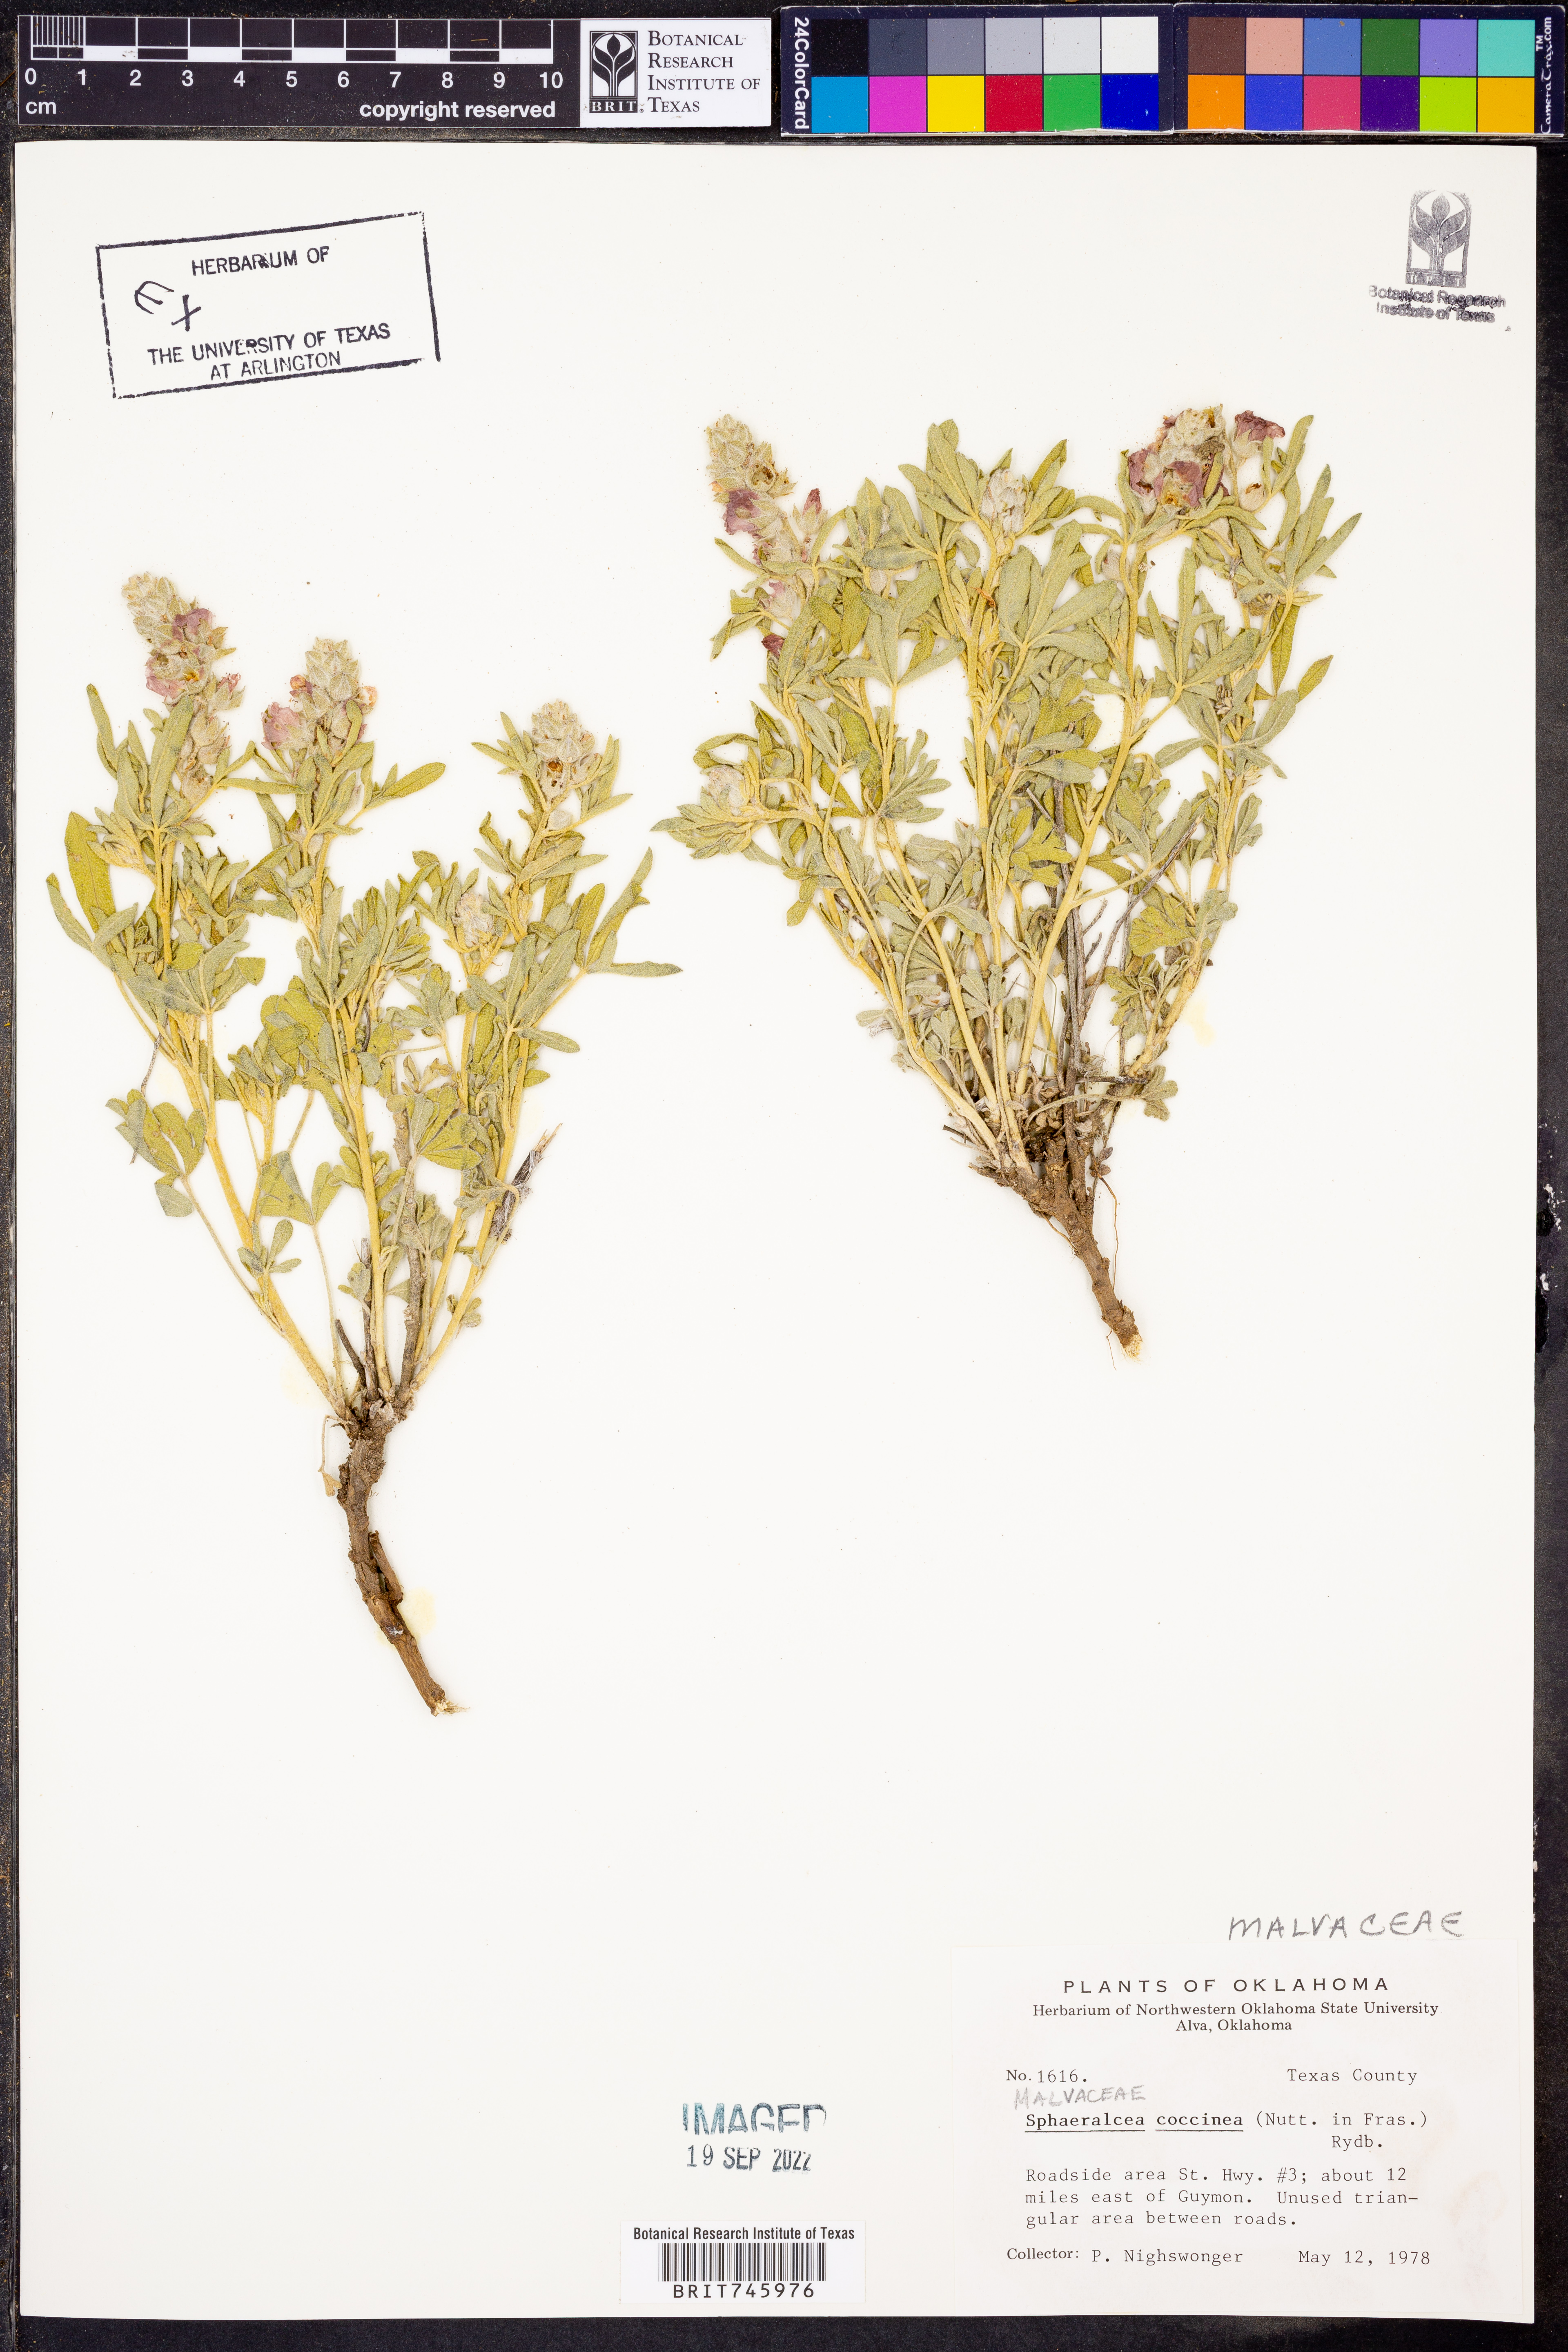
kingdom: Plantae
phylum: Tracheophyta
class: Magnoliopsida
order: Malvales
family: Malvaceae
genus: Sphaeralcea
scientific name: Sphaeralcea coccinea
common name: Moss-rose
